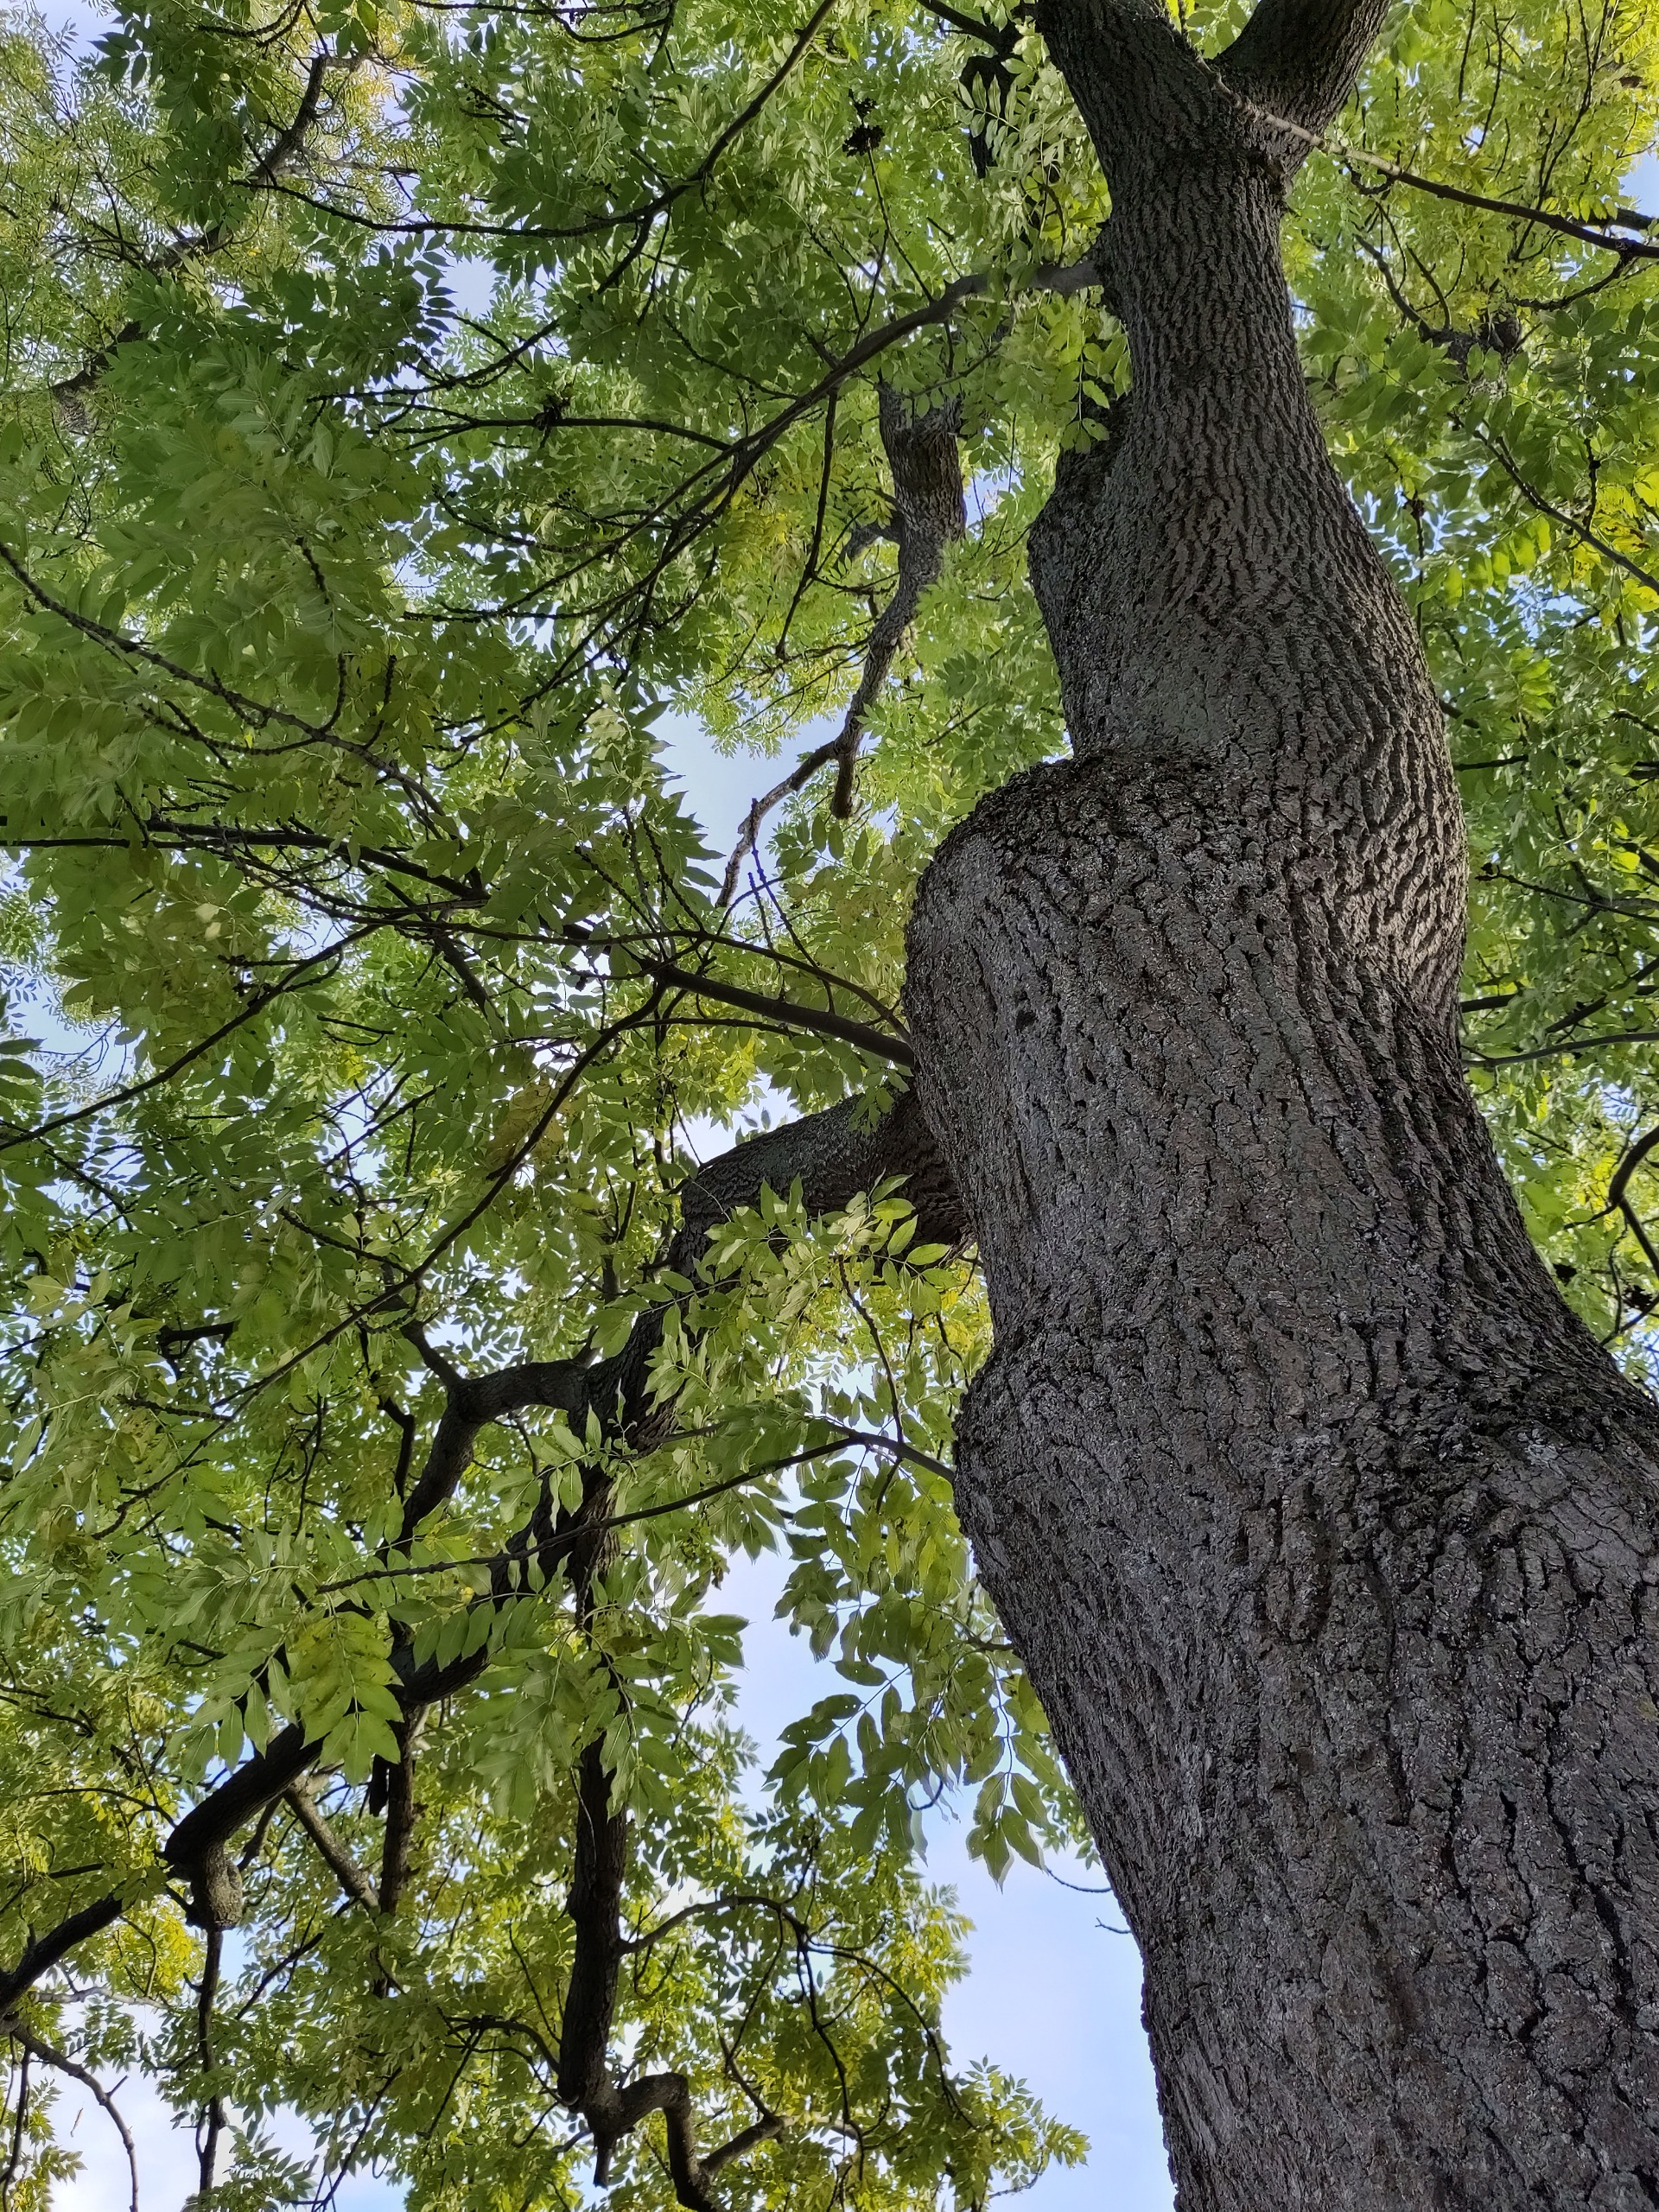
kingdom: Plantae
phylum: Tracheophyta
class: Magnoliopsida
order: Lamiales
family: Oleaceae
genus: Fraxinus
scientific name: Fraxinus excelsior
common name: Ask
